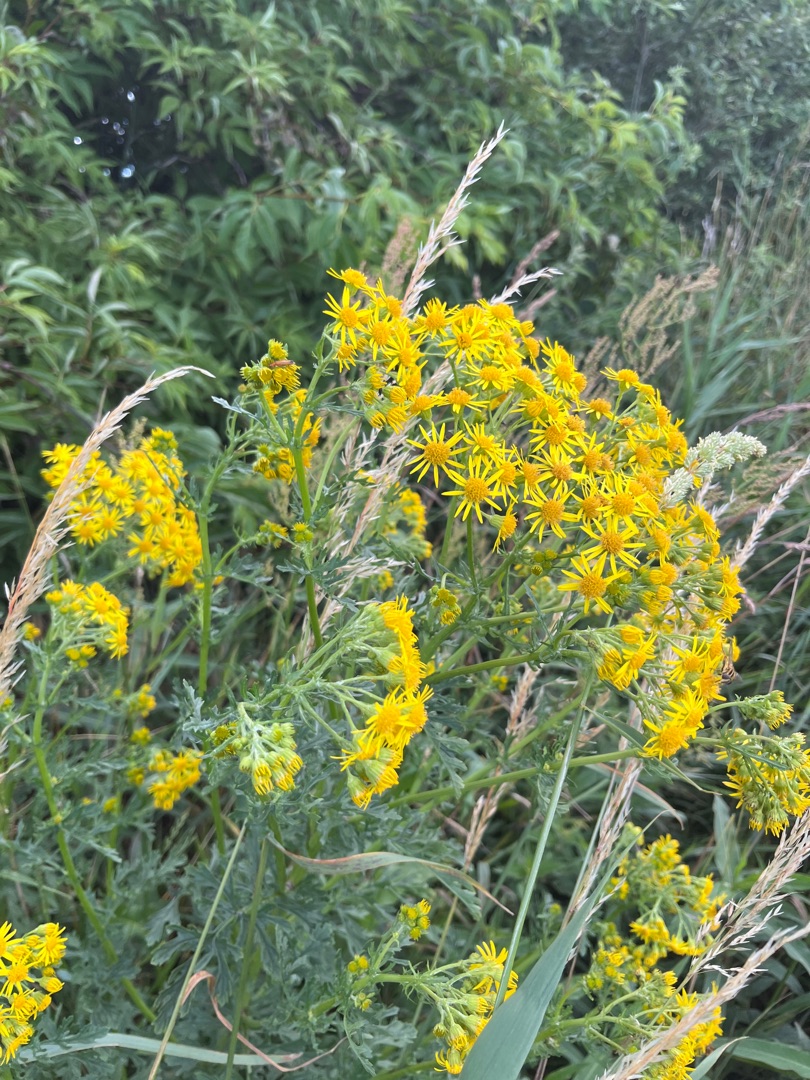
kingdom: Plantae
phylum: Tracheophyta
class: Magnoliopsida
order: Asterales
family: Asteraceae
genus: Jacobaea
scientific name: Jacobaea vulgaris
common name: Eng-brandbæger
